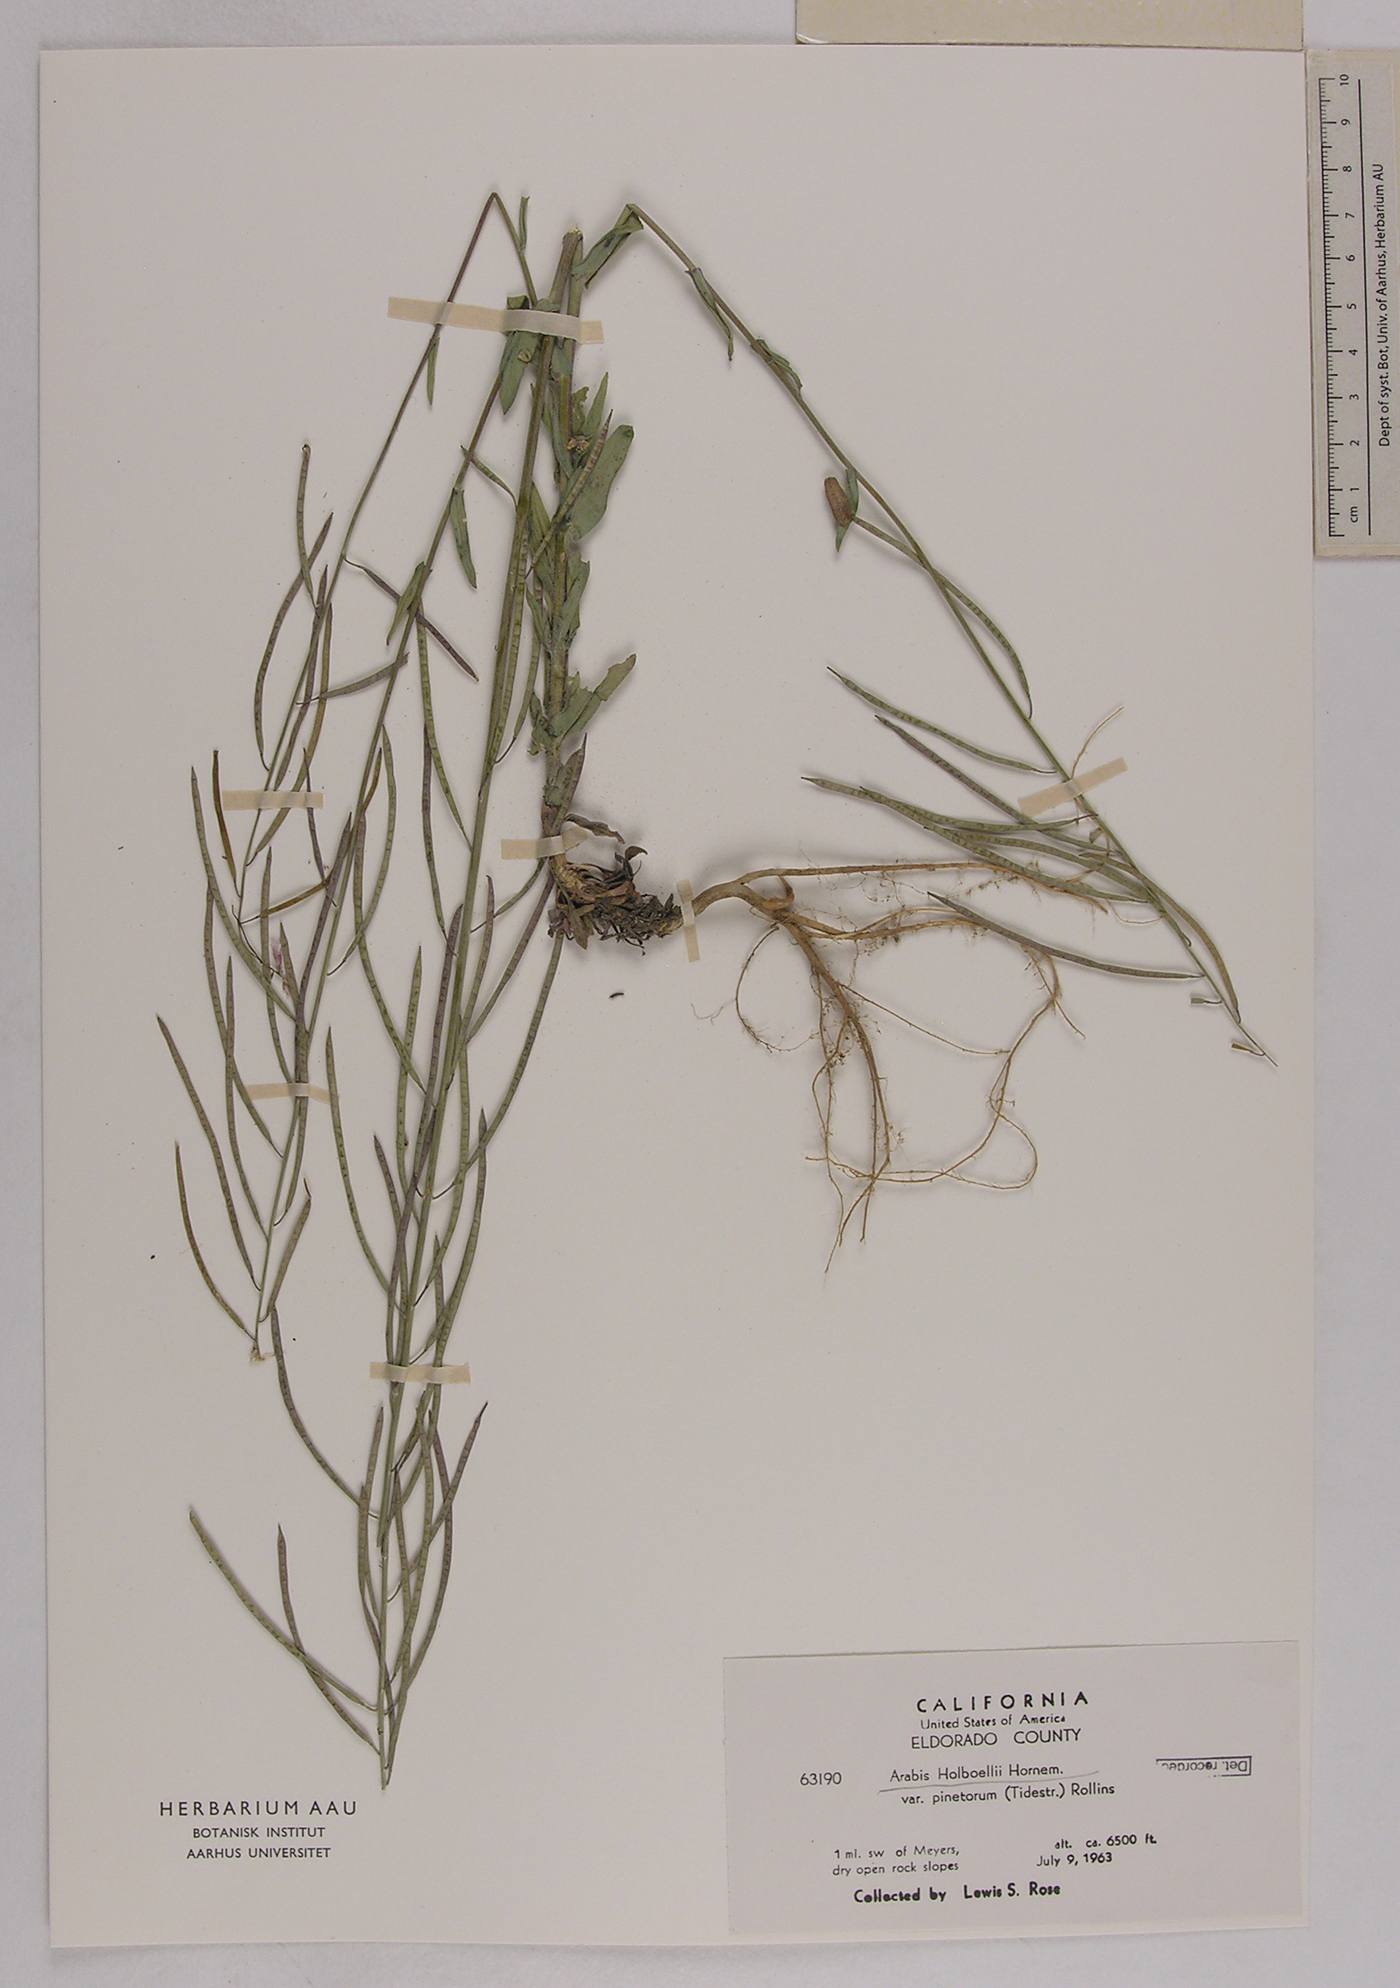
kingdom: Plantae
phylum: Tracheophyta
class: Magnoliopsida
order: Brassicales
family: Brassicaceae
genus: Boechera
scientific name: Boechera pinetorum
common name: Pine rockcress
